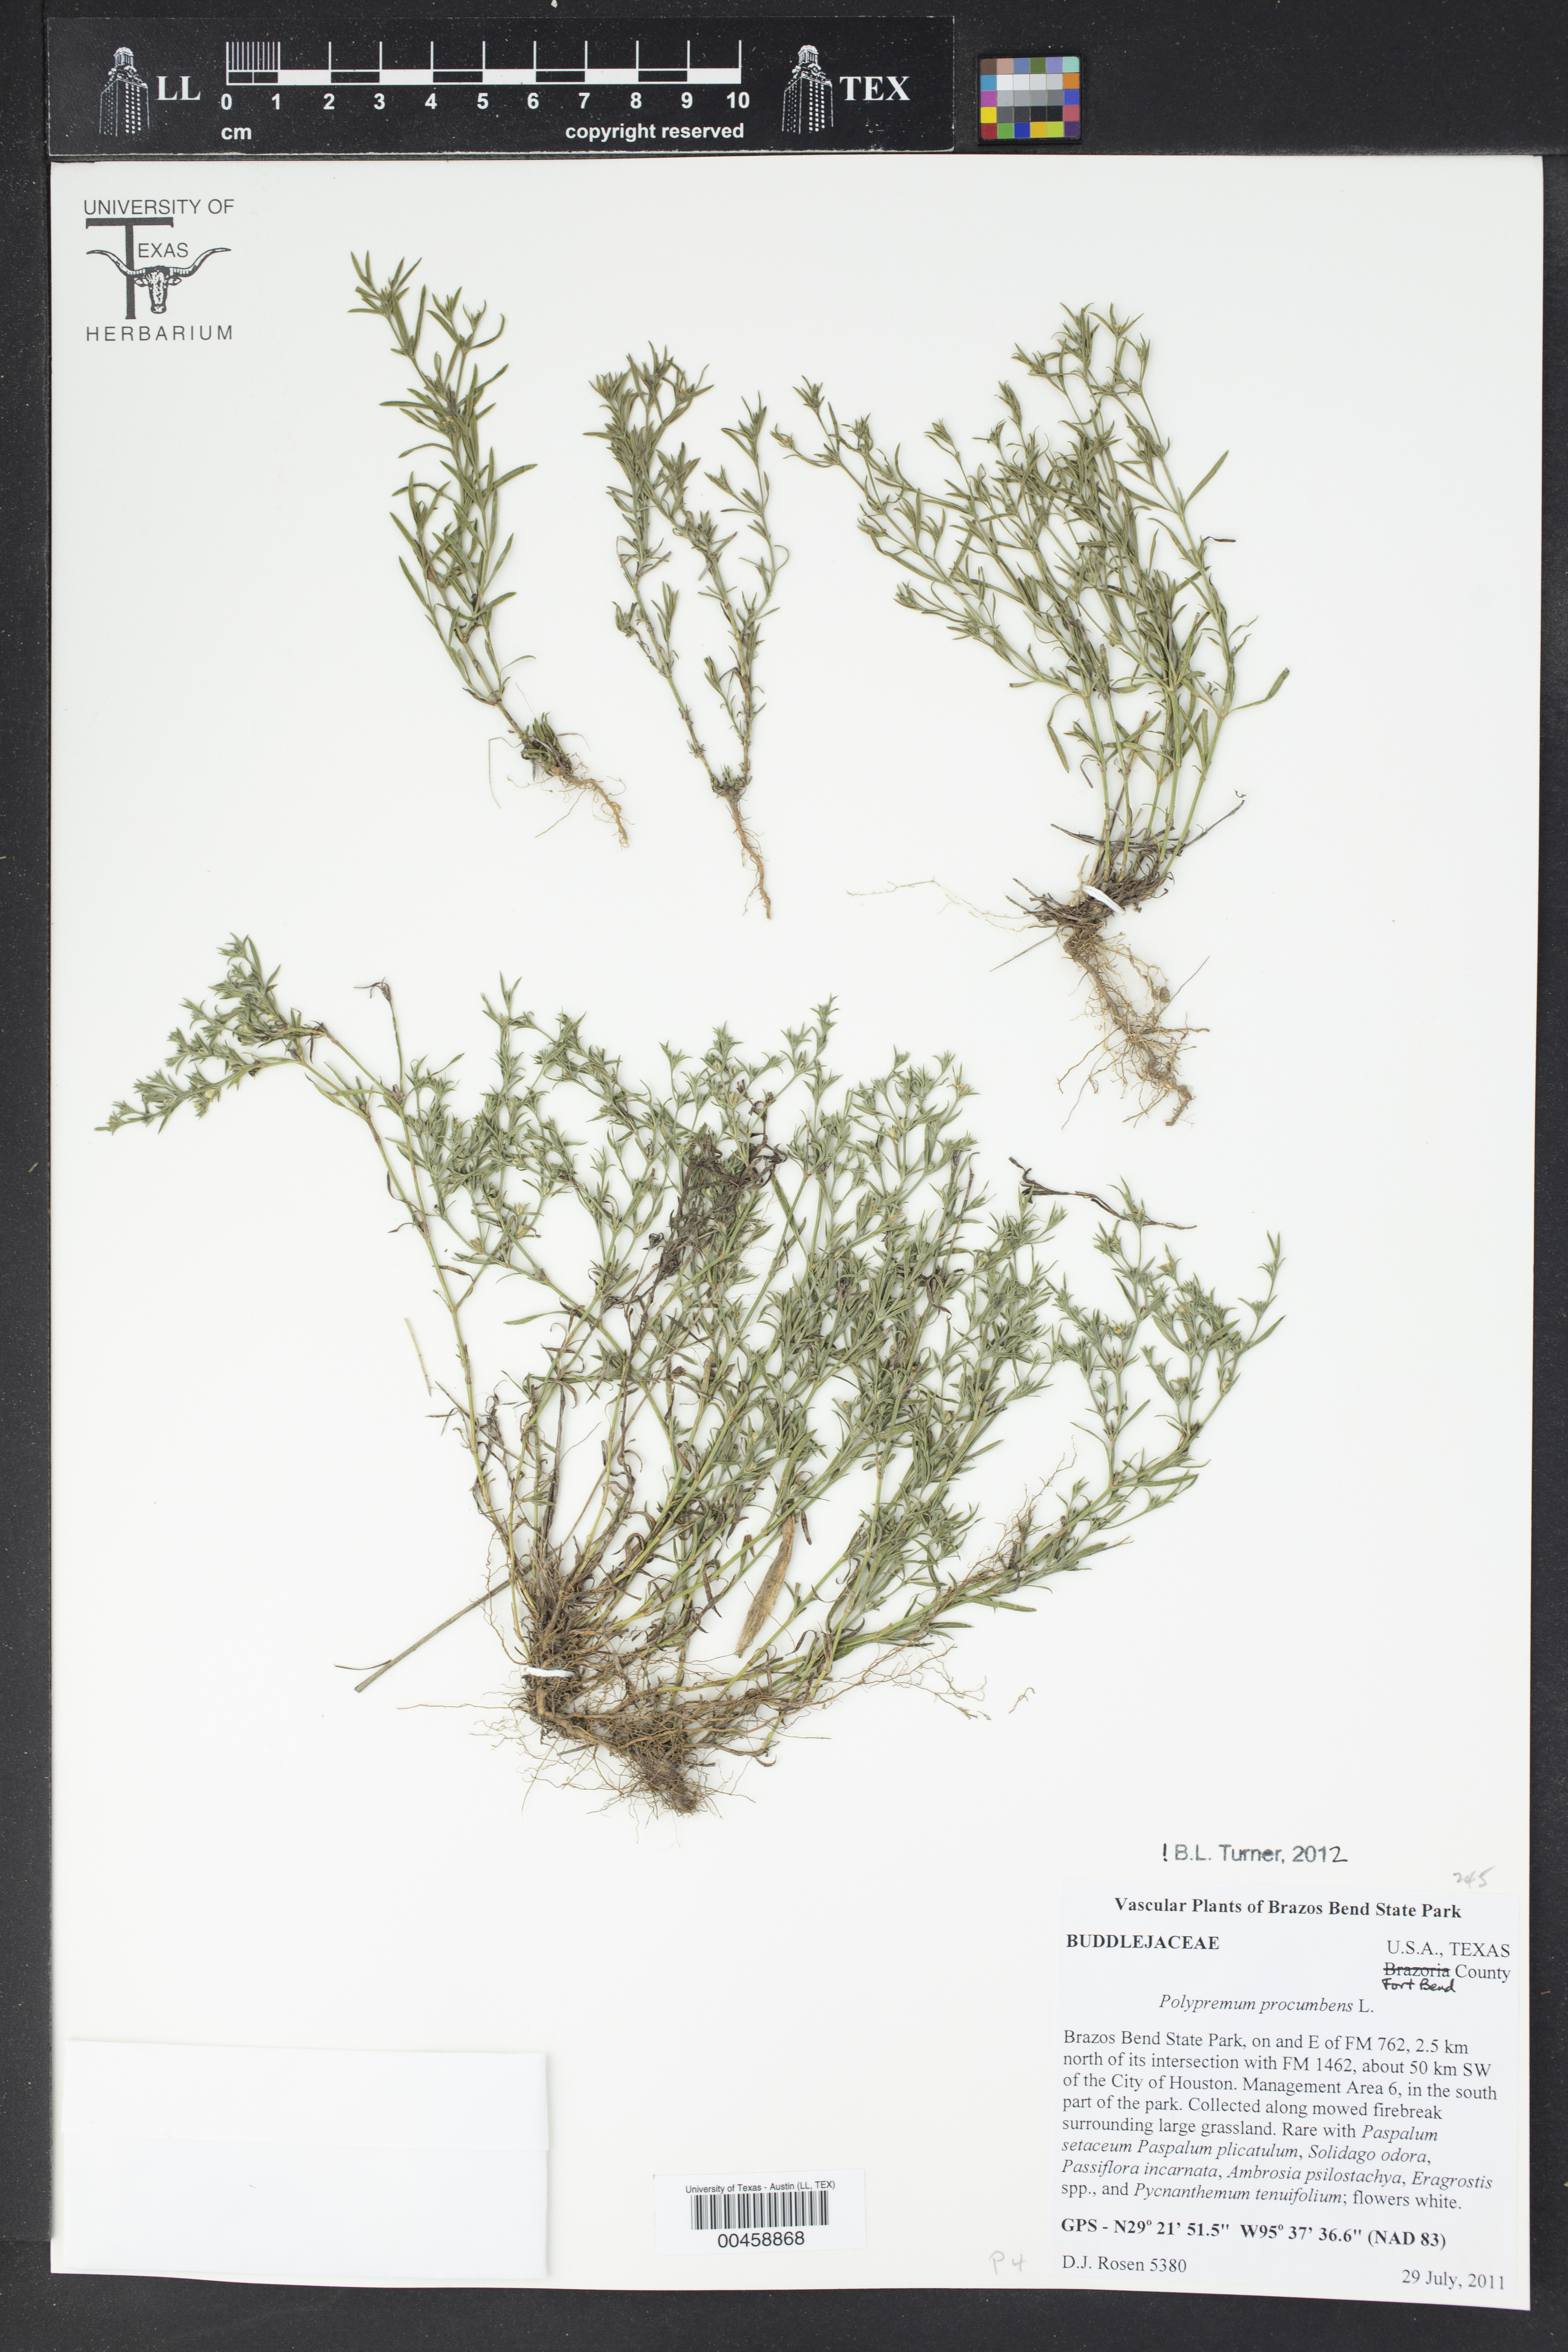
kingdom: Plantae
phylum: Tracheophyta
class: Magnoliopsida
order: Lamiales
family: Tetrachondraceae
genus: Polypremum
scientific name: Polypremum procumbens
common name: Juniper-leaf
